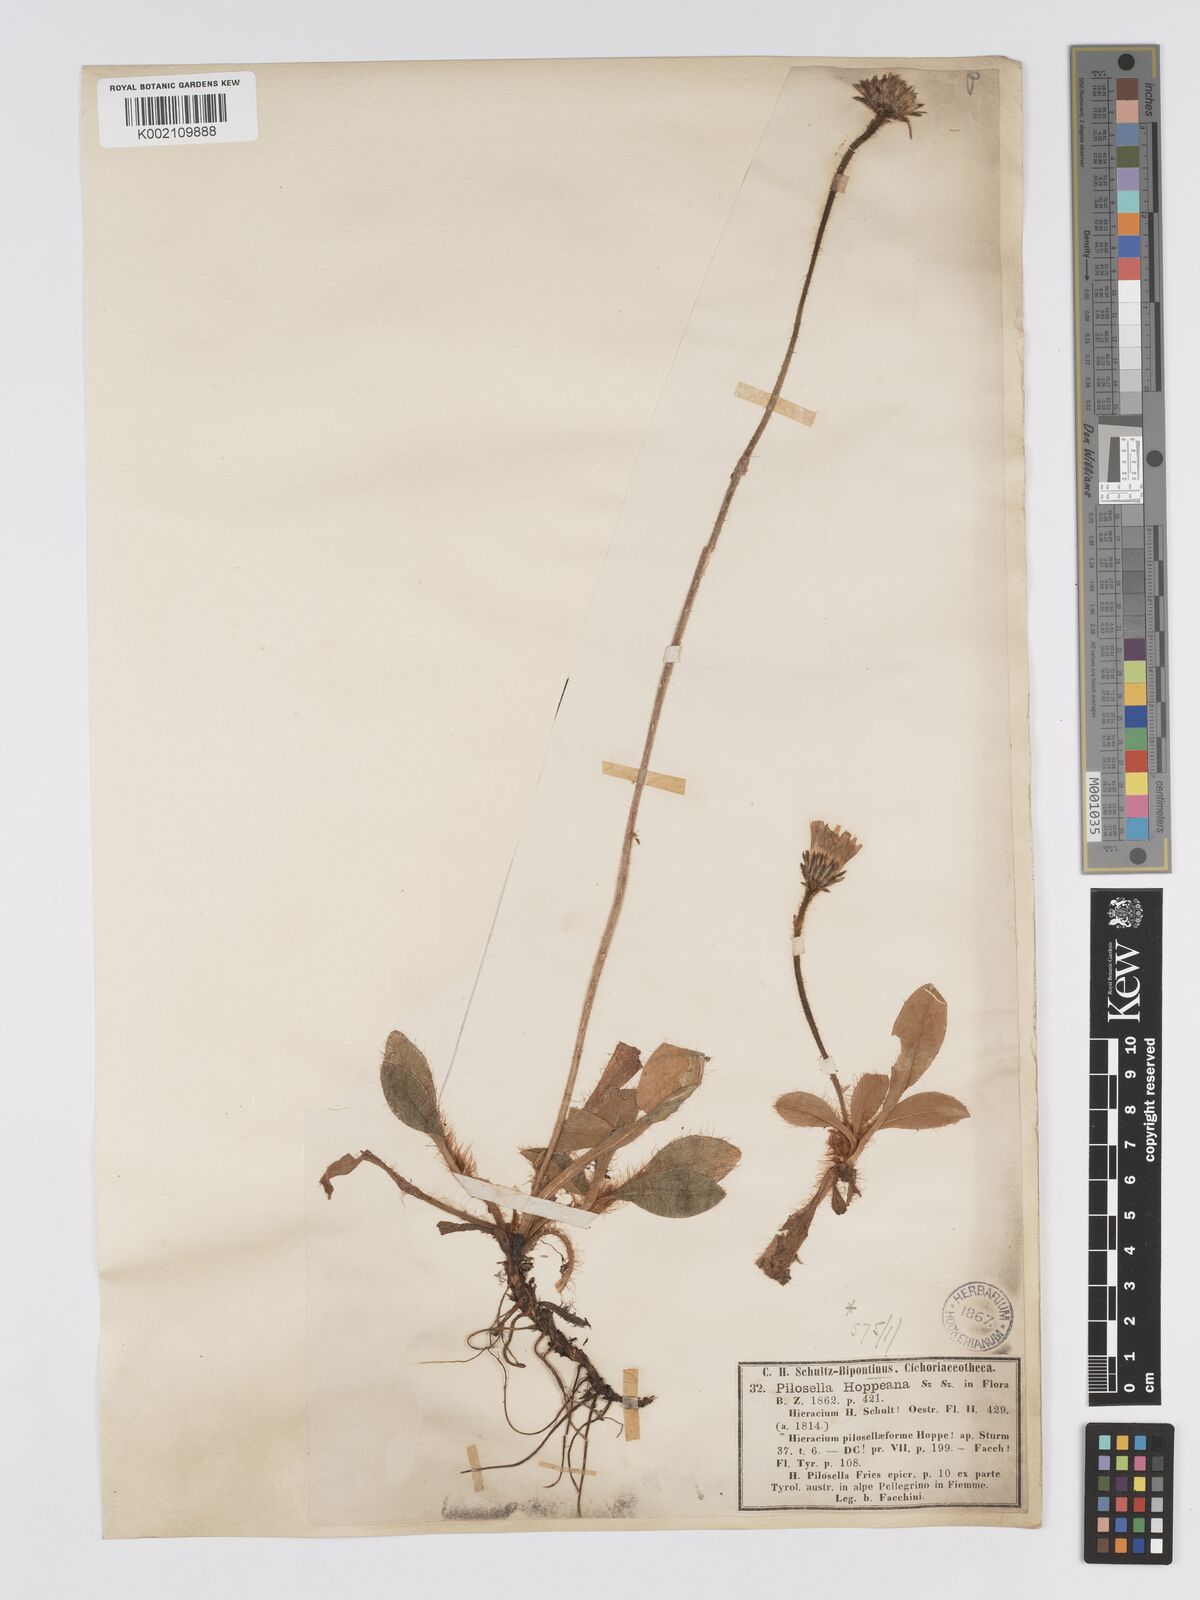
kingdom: Plantae
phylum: Tracheophyta
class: Magnoliopsida
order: Asterales
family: Asteraceae
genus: Pilosella
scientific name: Pilosella hoppeana
